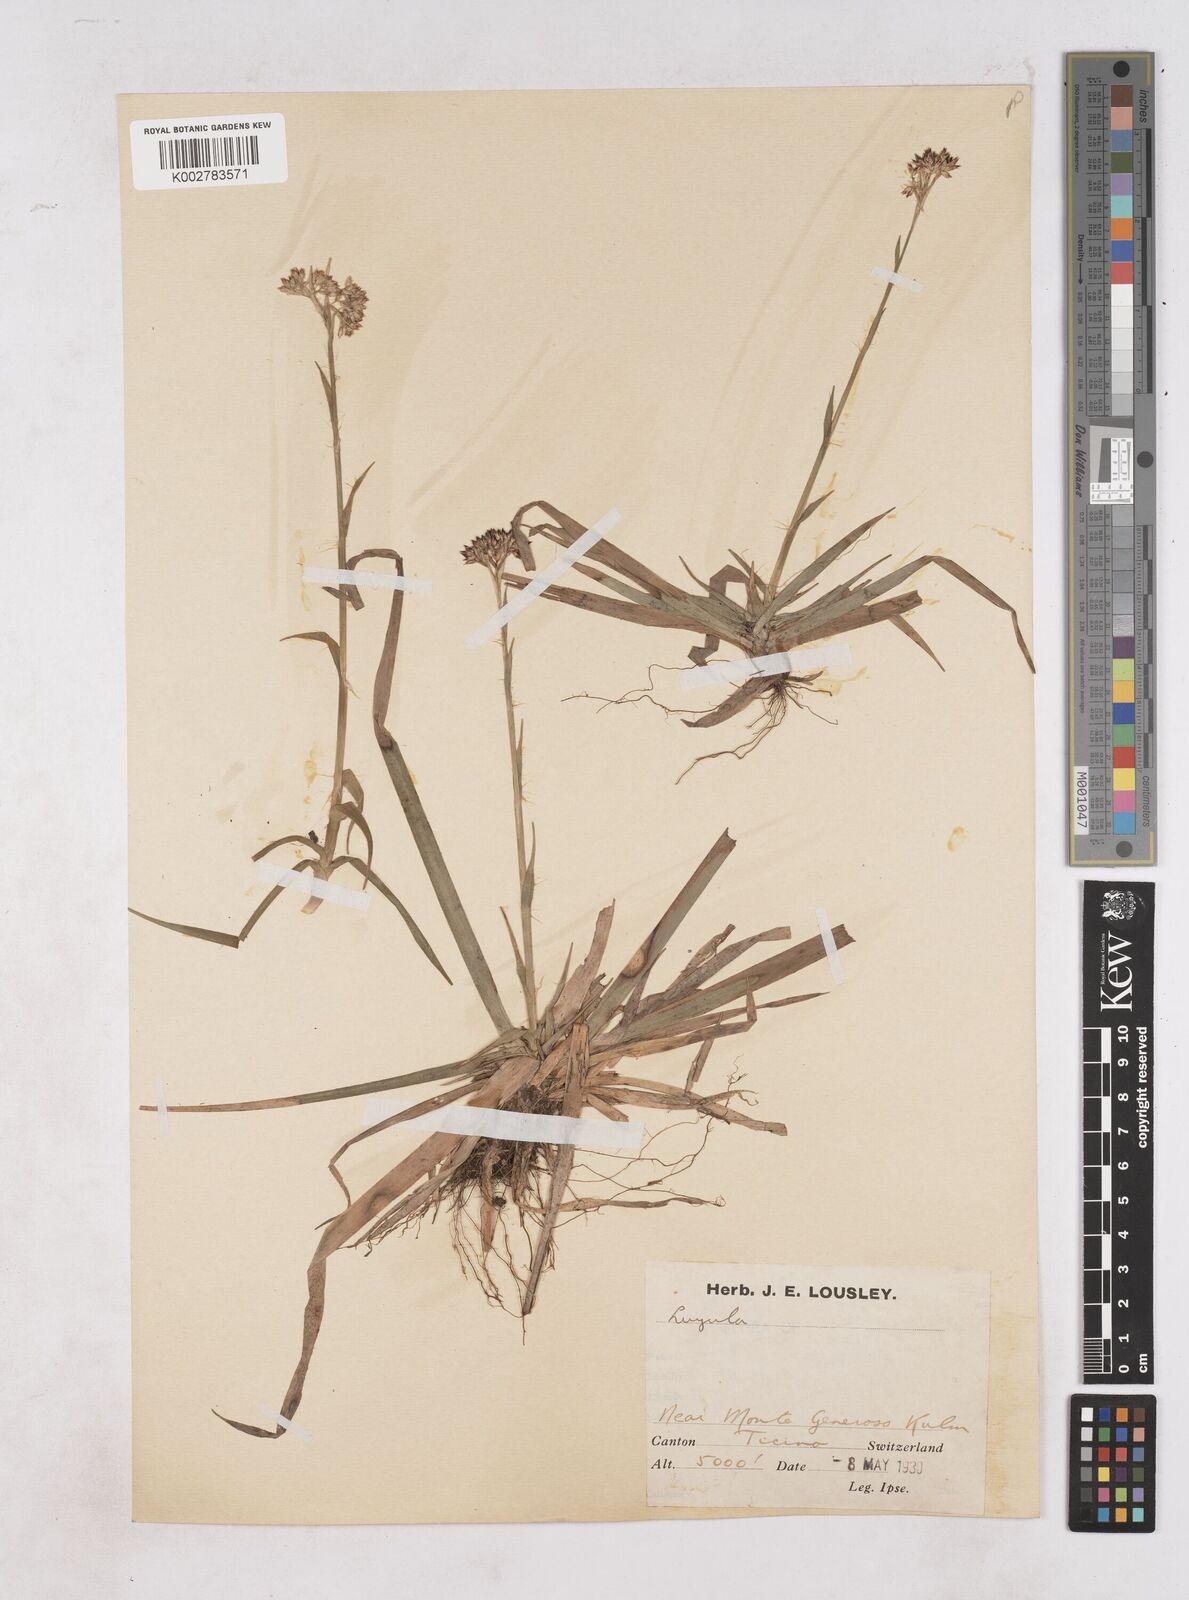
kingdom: Plantae
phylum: Tracheophyta
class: Liliopsida
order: Poales
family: Juncaceae
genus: Luzula
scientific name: Luzula
